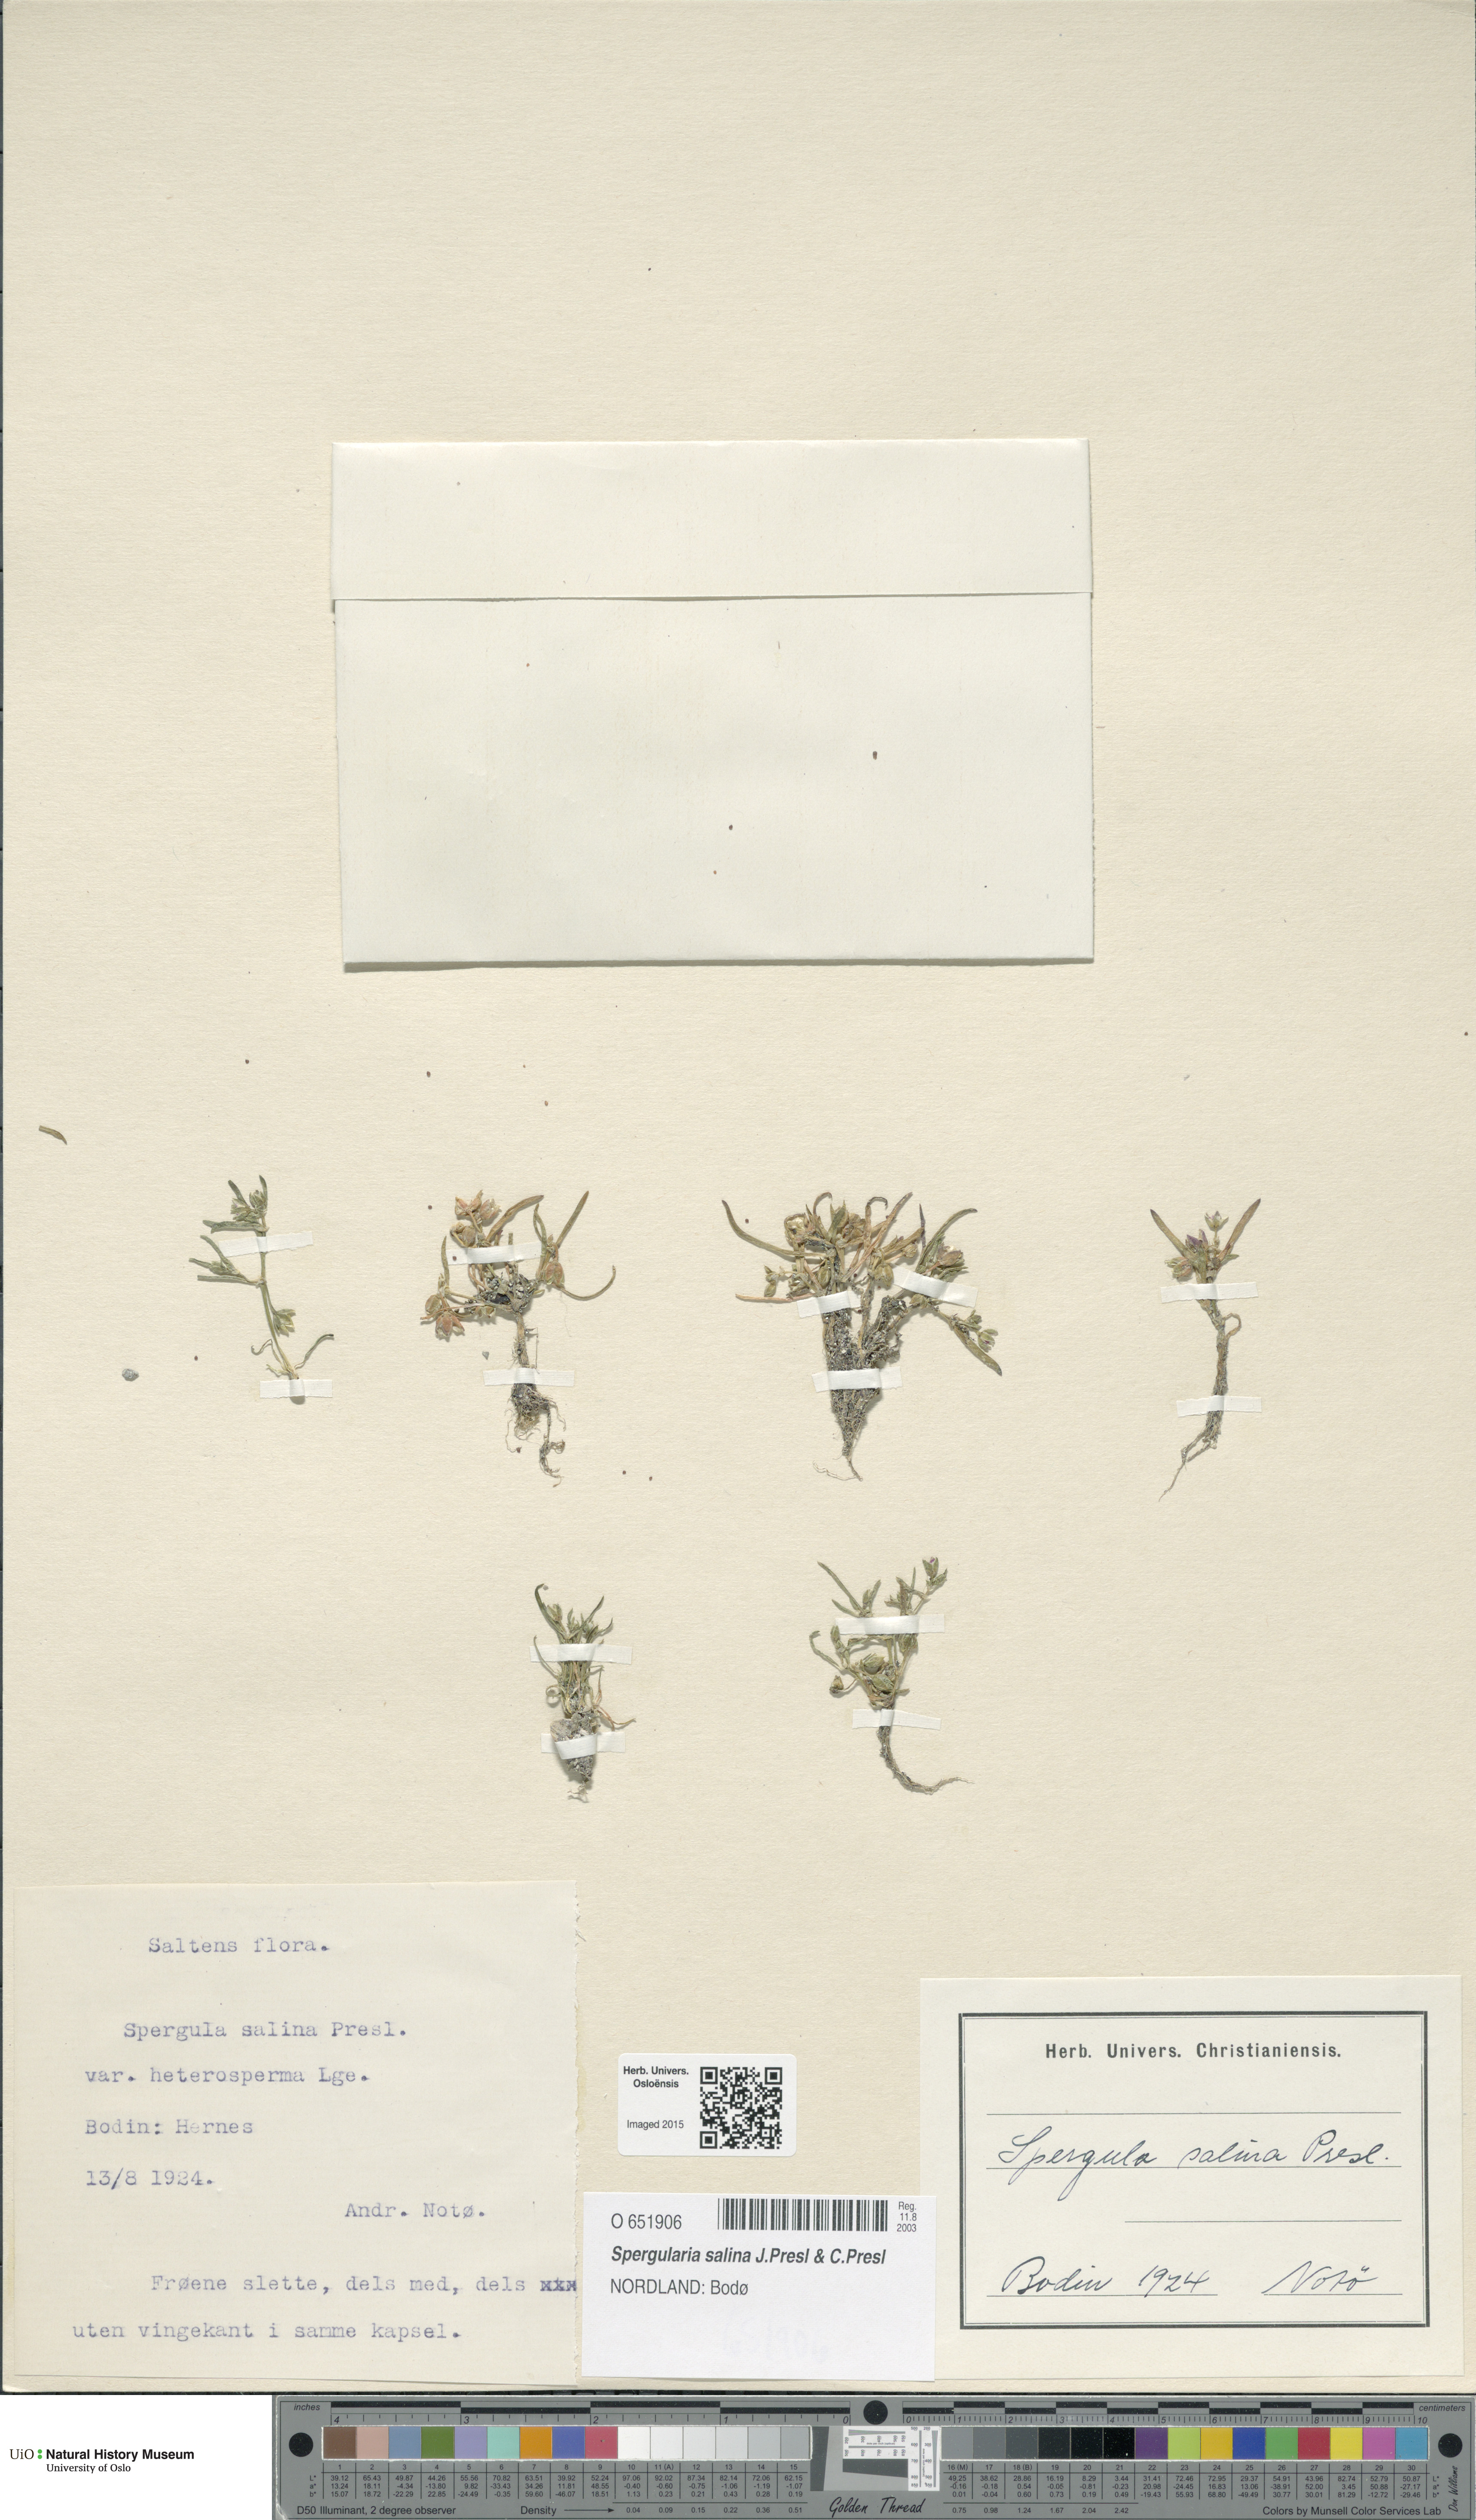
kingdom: Plantae
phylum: Tracheophyta
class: Magnoliopsida
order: Caryophyllales
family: Caryophyllaceae
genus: Spergularia
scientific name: Spergularia marina
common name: Lesser sea-spurrey
